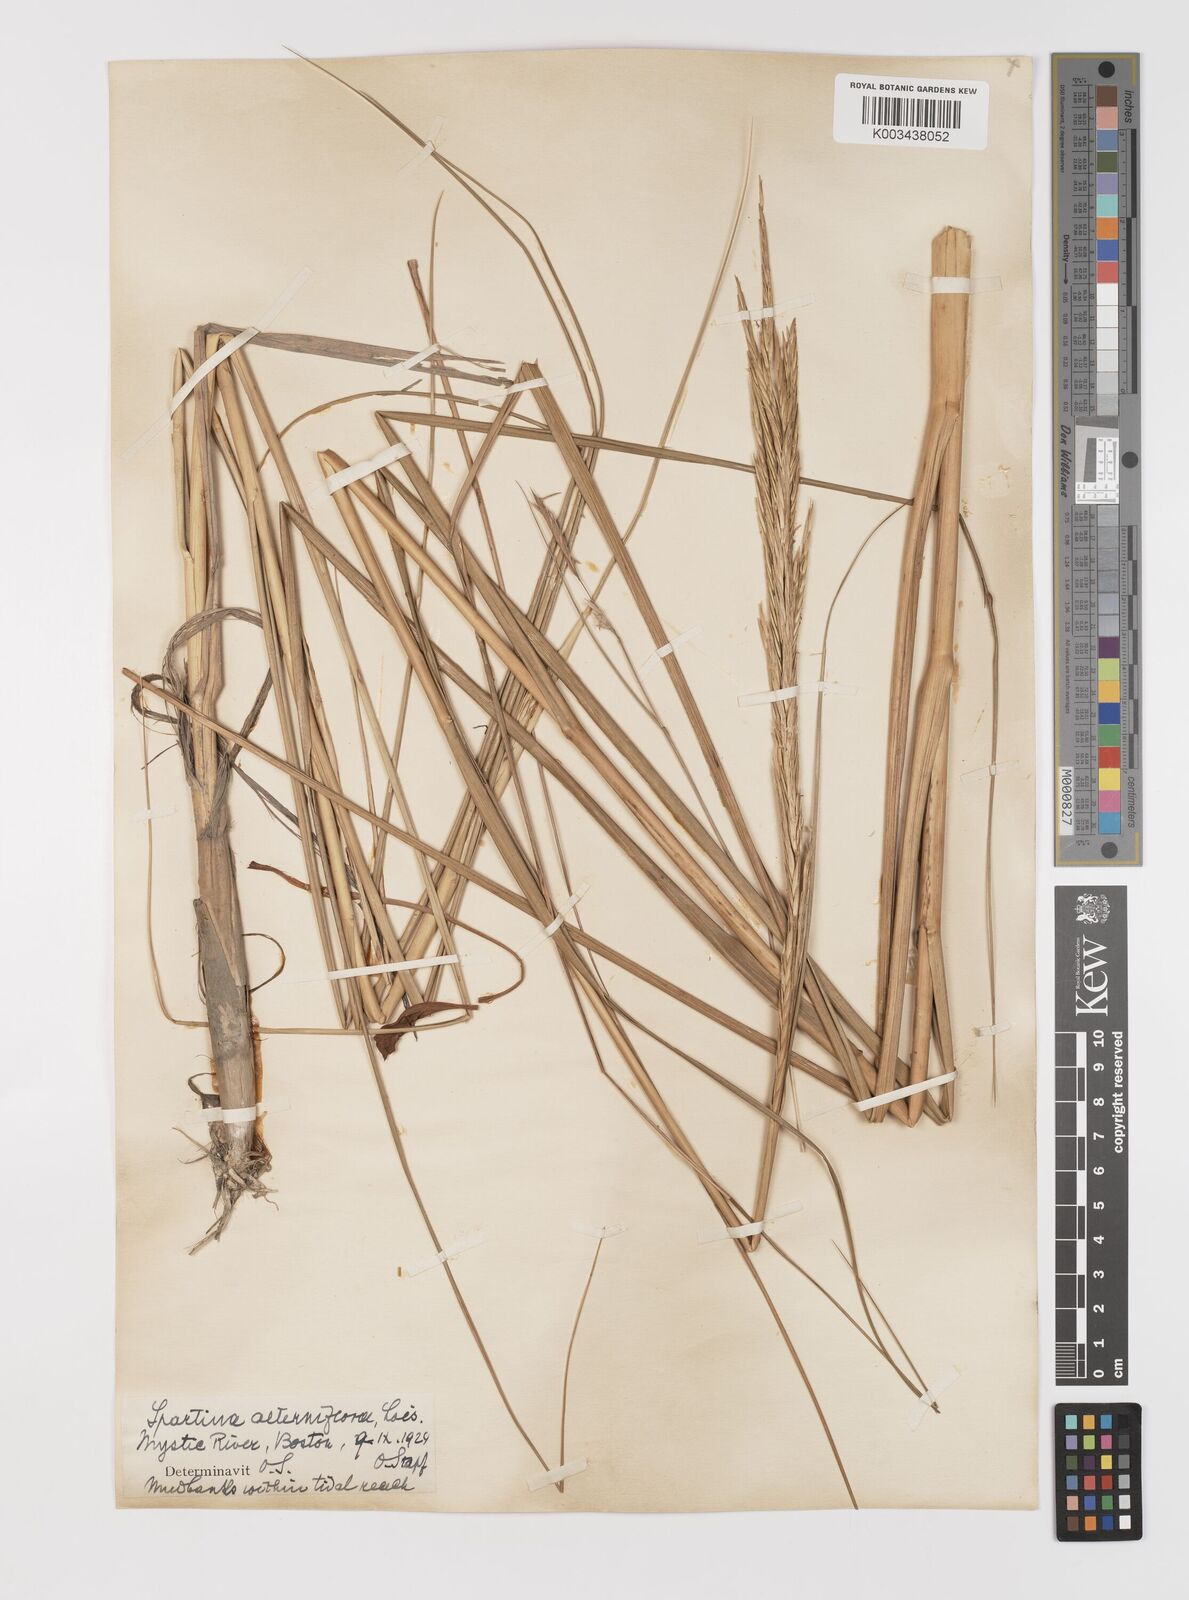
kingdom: Plantae
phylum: Tracheophyta
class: Liliopsida
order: Poales
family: Poaceae
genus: Sporobolus
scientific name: Sporobolus coarctatus
